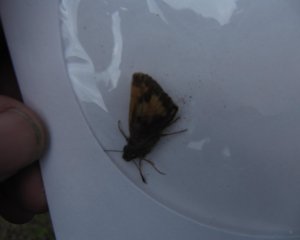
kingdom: Animalia
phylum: Arthropoda
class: Insecta
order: Lepidoptera
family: Hesperiidae
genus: Lon
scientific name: Lon hobomok
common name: Hobomok Skipper
